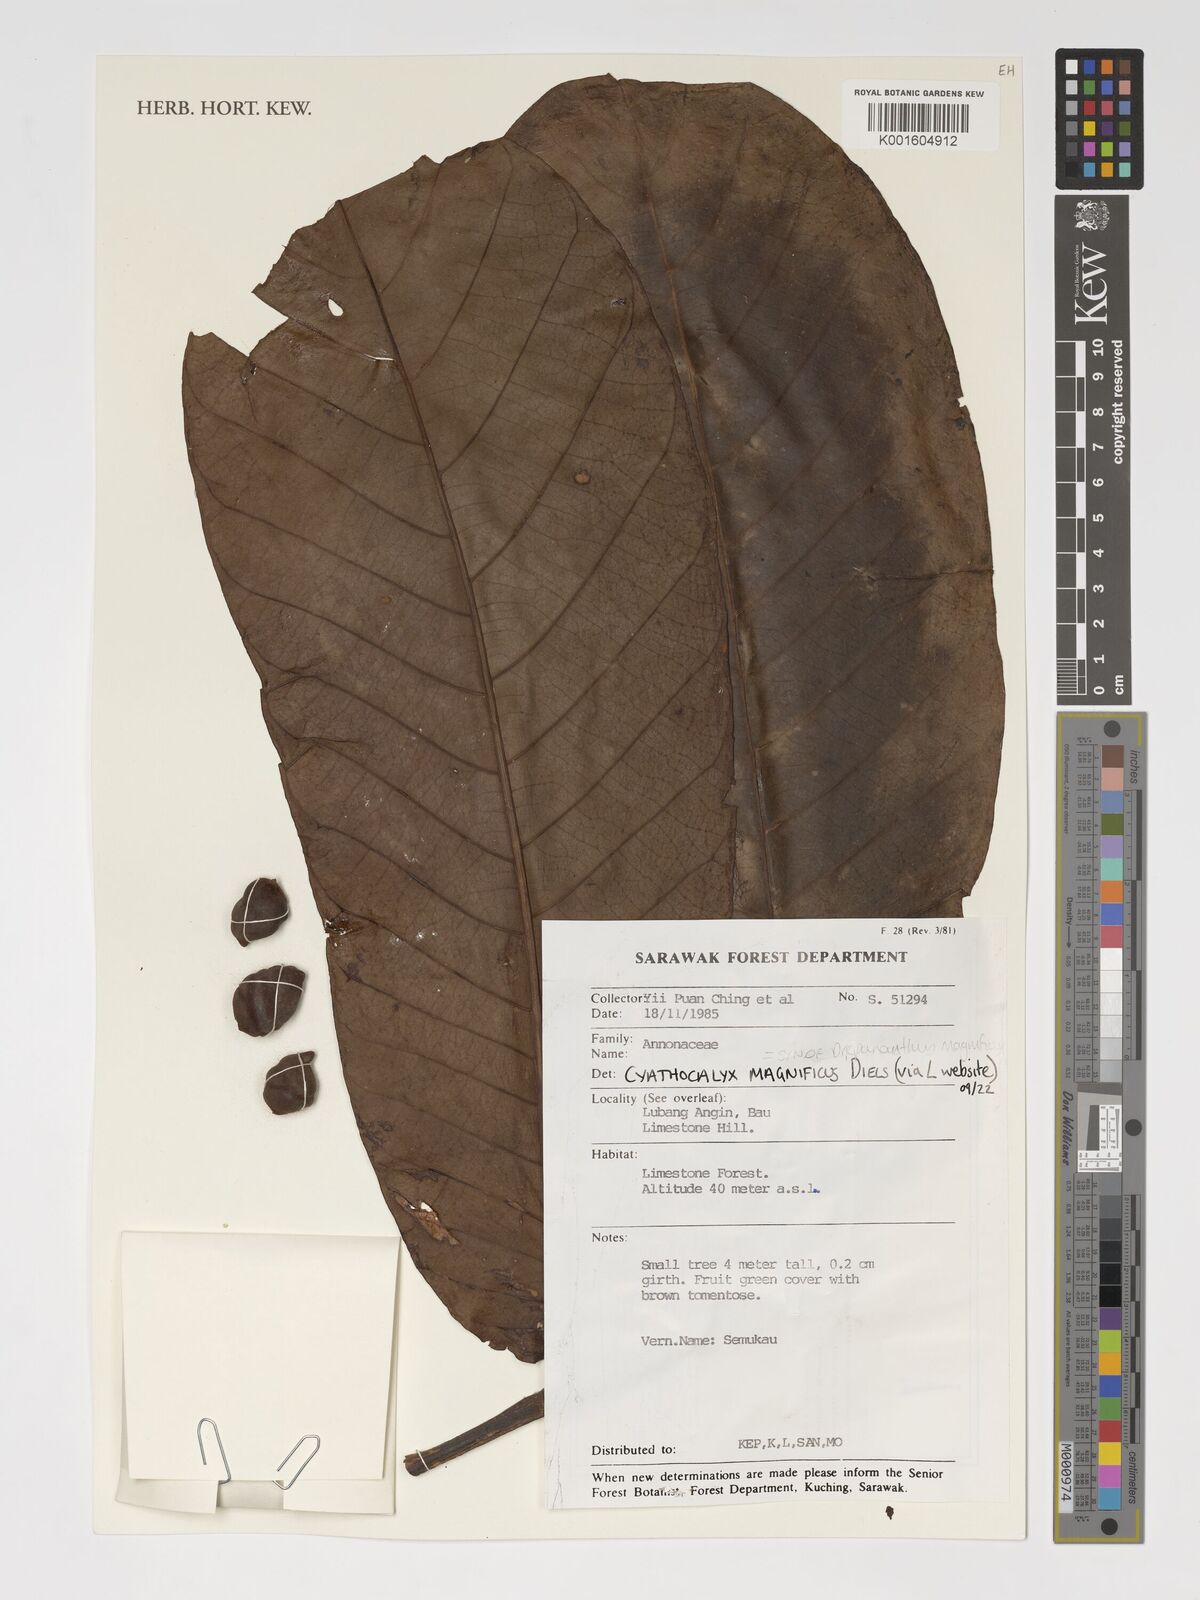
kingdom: Plantae
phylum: Tracheophyta
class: Magnoliopsida
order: Magnoliales
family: Annonaceae
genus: Drepananthus
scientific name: Drepananthus magnificus
